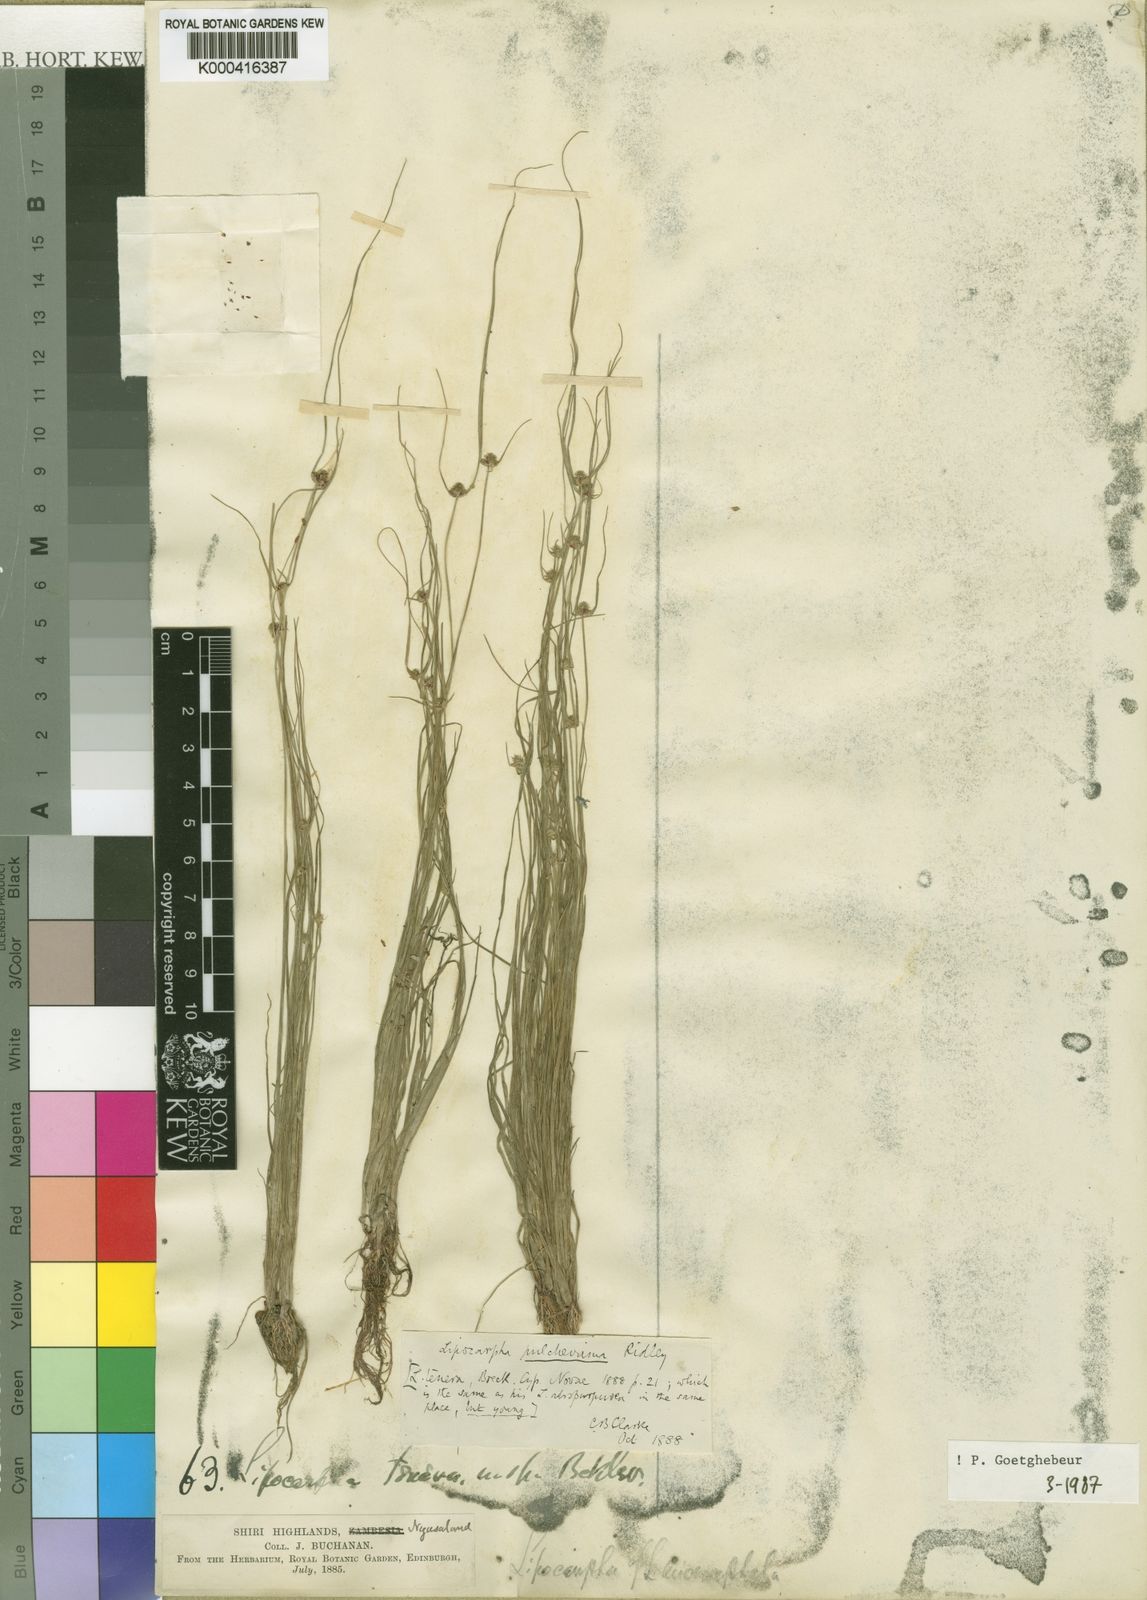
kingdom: Plantae
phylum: Tracheophyta
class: Liliopsida
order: Poales
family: Cyperaceae
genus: Cyperus
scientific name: Cyperus persquarrosus
